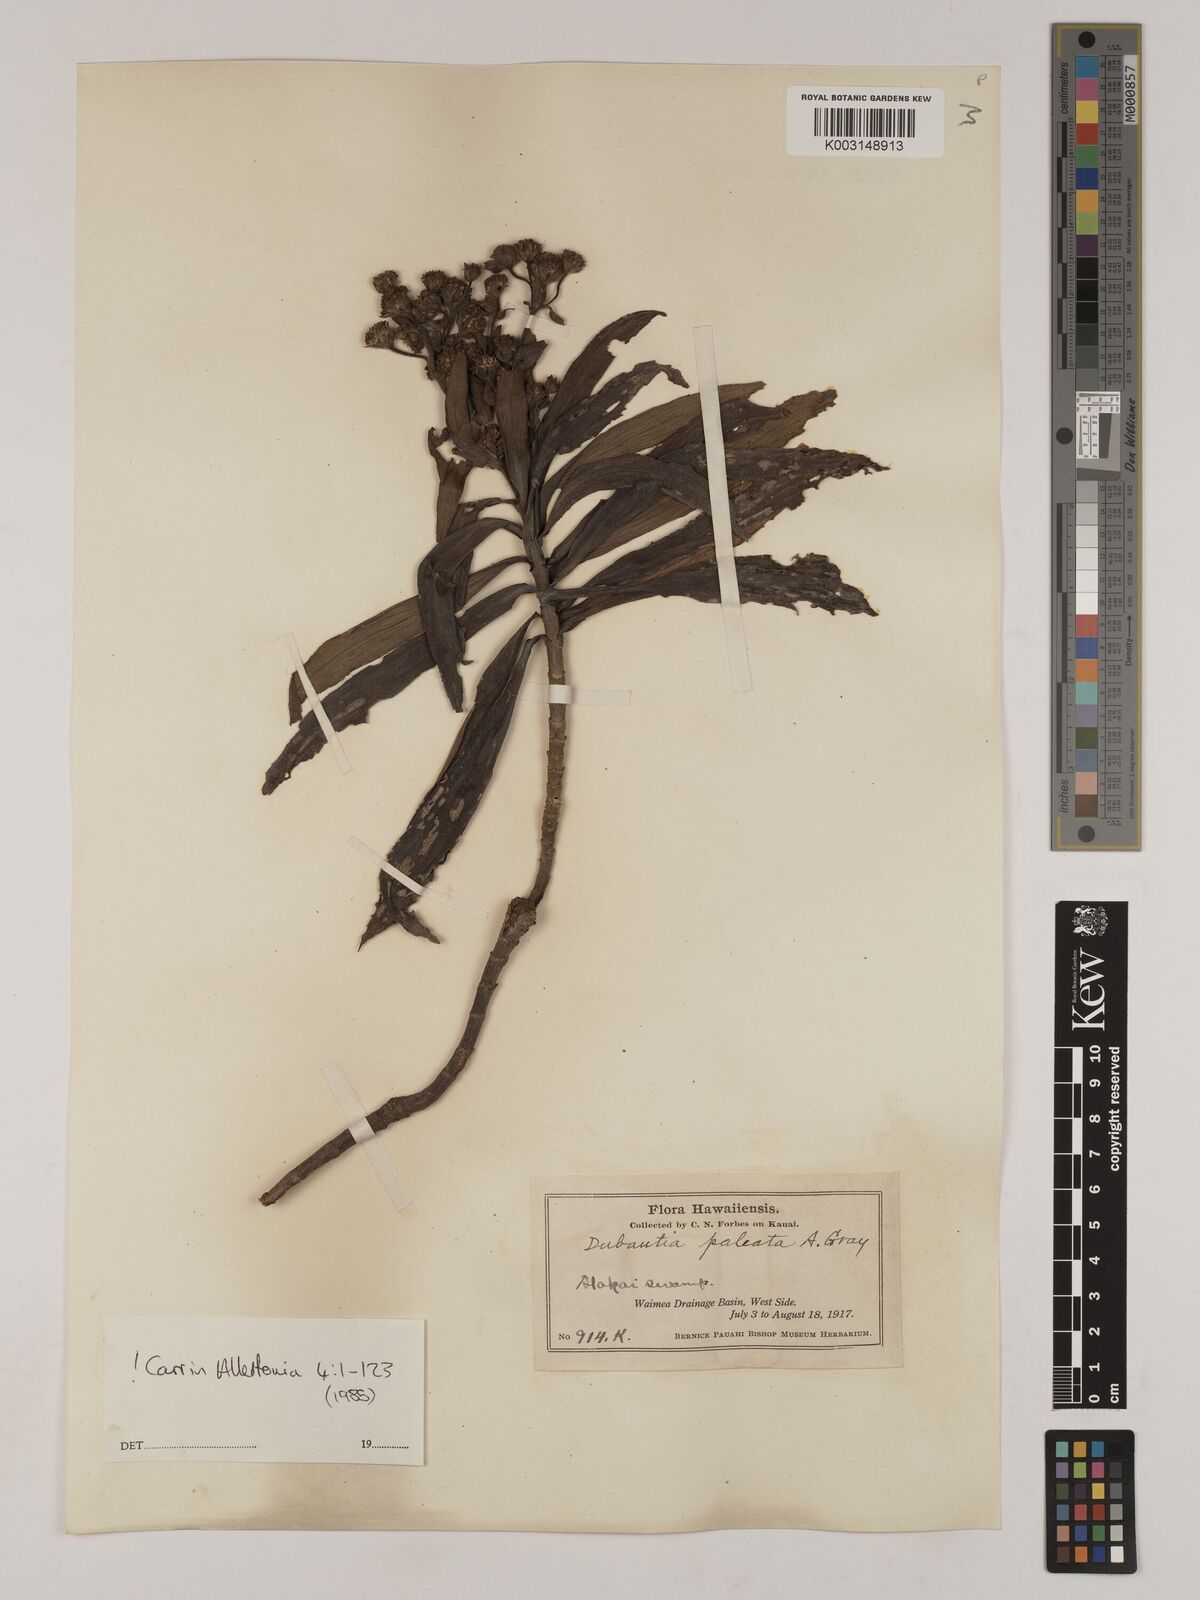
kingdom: Plantae
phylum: Tracheophyta
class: Magnoliopsida
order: Asterales
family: Asteraceae
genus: Dubautia
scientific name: Dubautia paleata
